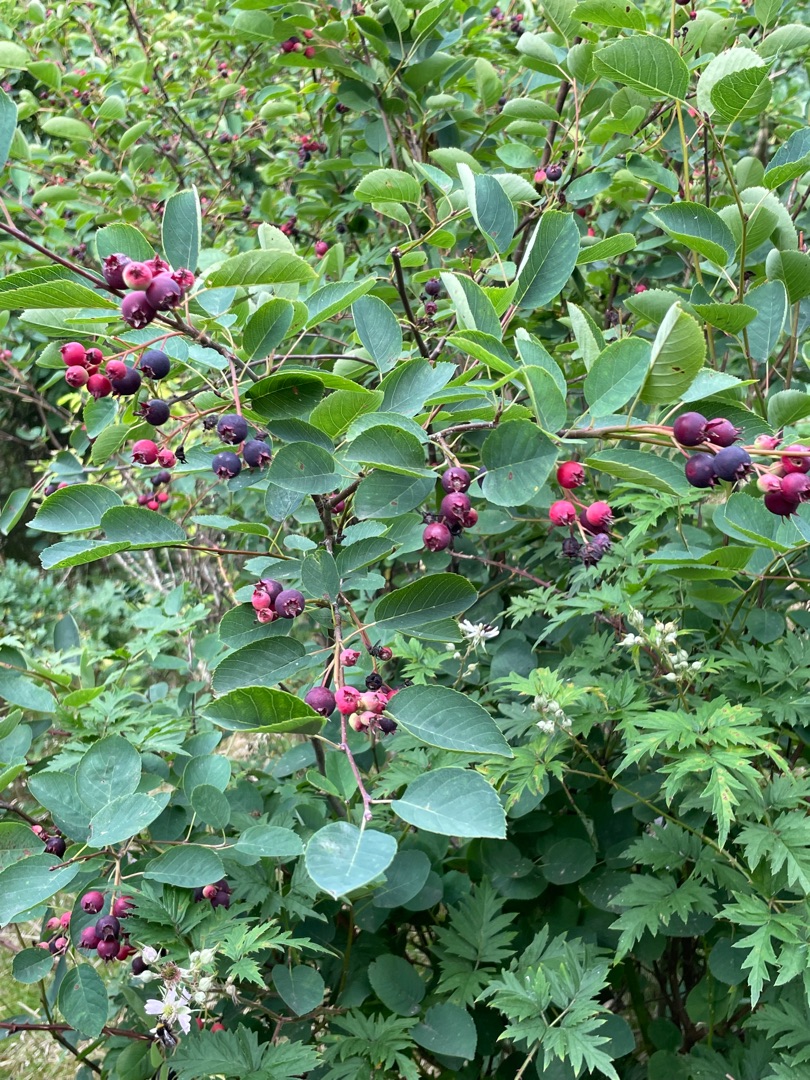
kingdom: Plantae
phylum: Tracheophyta
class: Magnoliopsida
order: Rosales
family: Rosaceae
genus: Amelanchier
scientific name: Amelanchier humilis
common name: Aks-bærmispel
